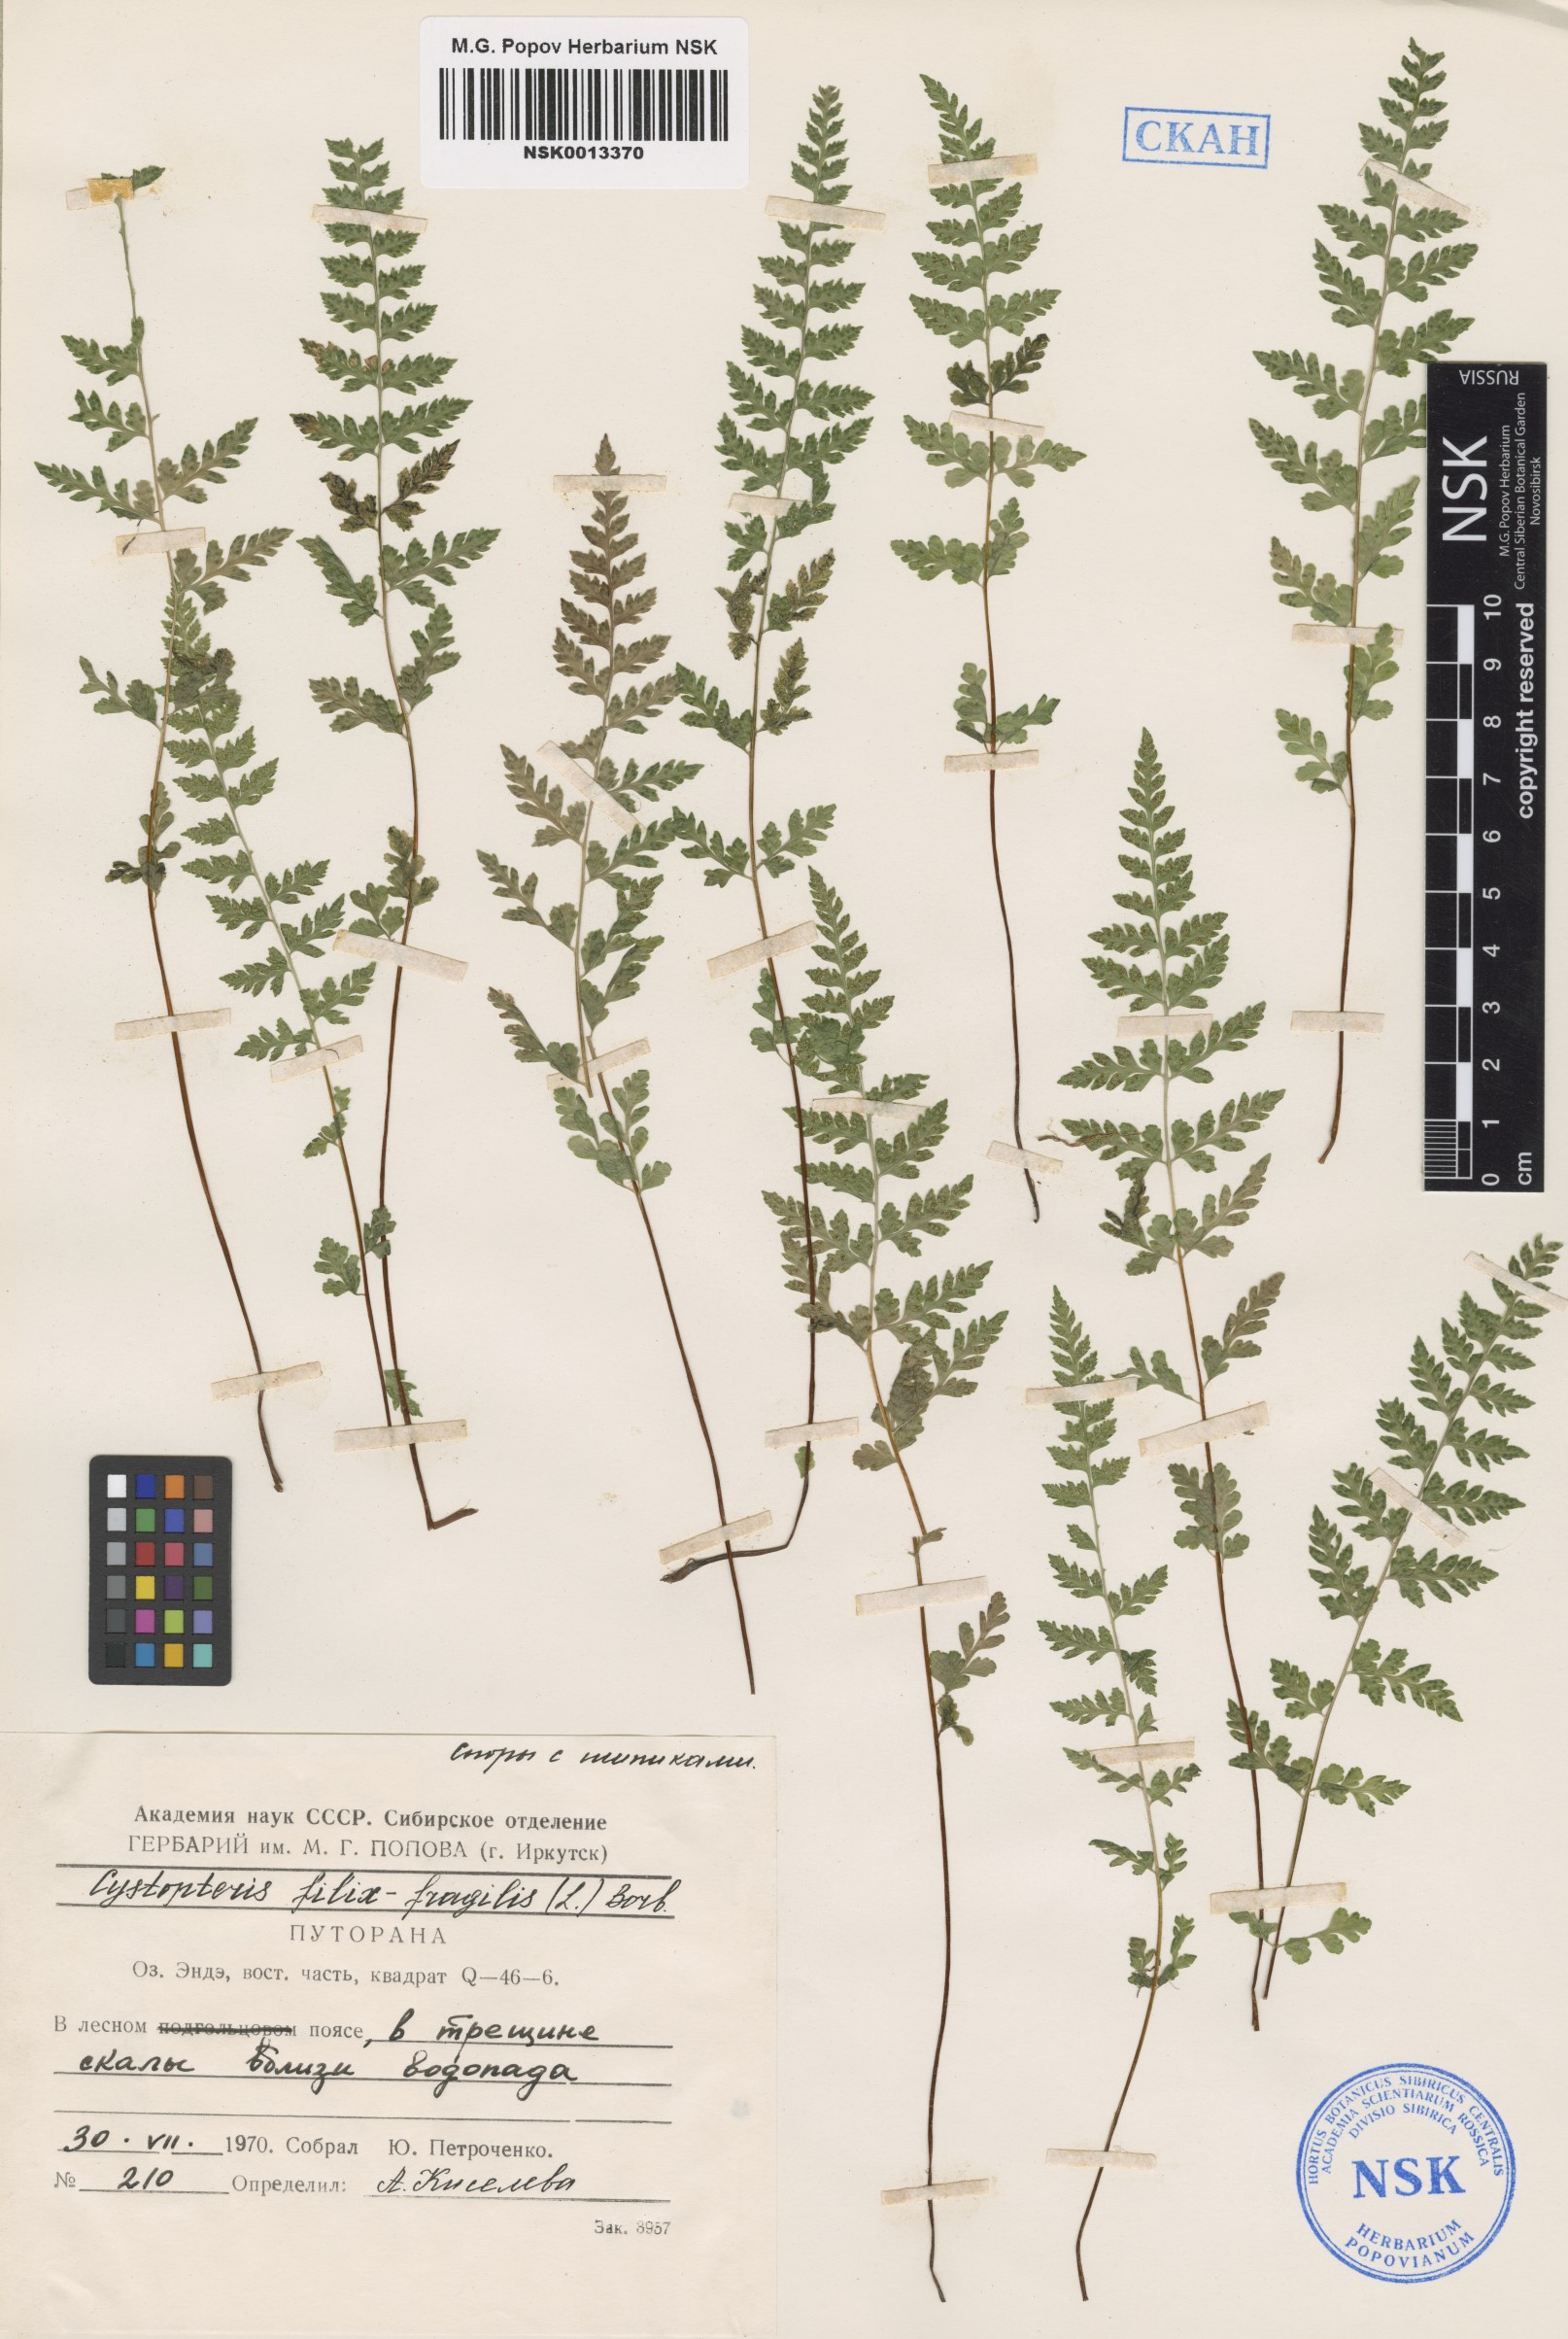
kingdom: Plantae
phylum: Tracheophyta
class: Polypodiopsida
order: Polypodiales
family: Cystopteridaceae
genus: Cystopteris
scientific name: Cystopteris fragilis
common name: Brittle bladder fern
